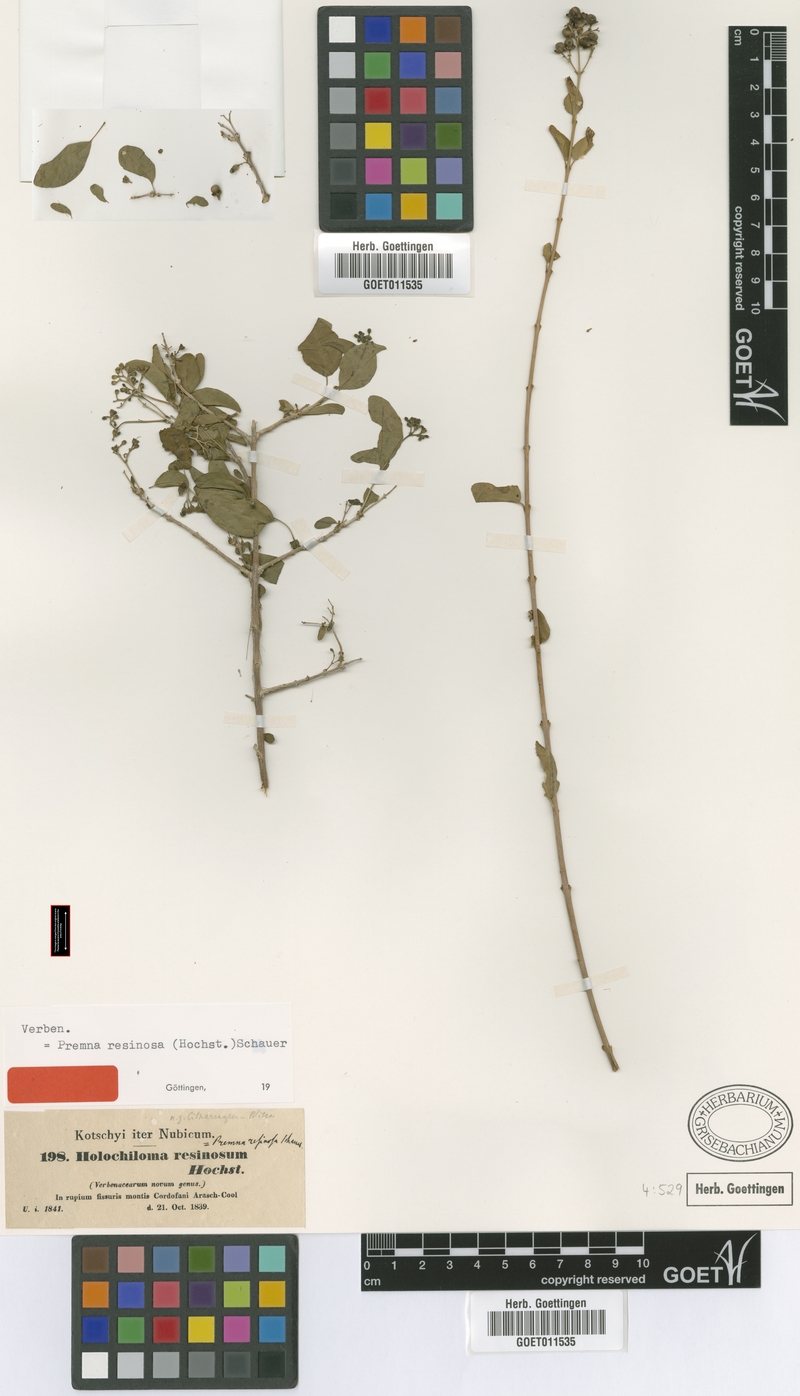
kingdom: Plantae
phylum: Tracheophyta
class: Magnoliopsida
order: Lamiales
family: Lamiaceae
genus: Premna
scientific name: Premna resinosa
